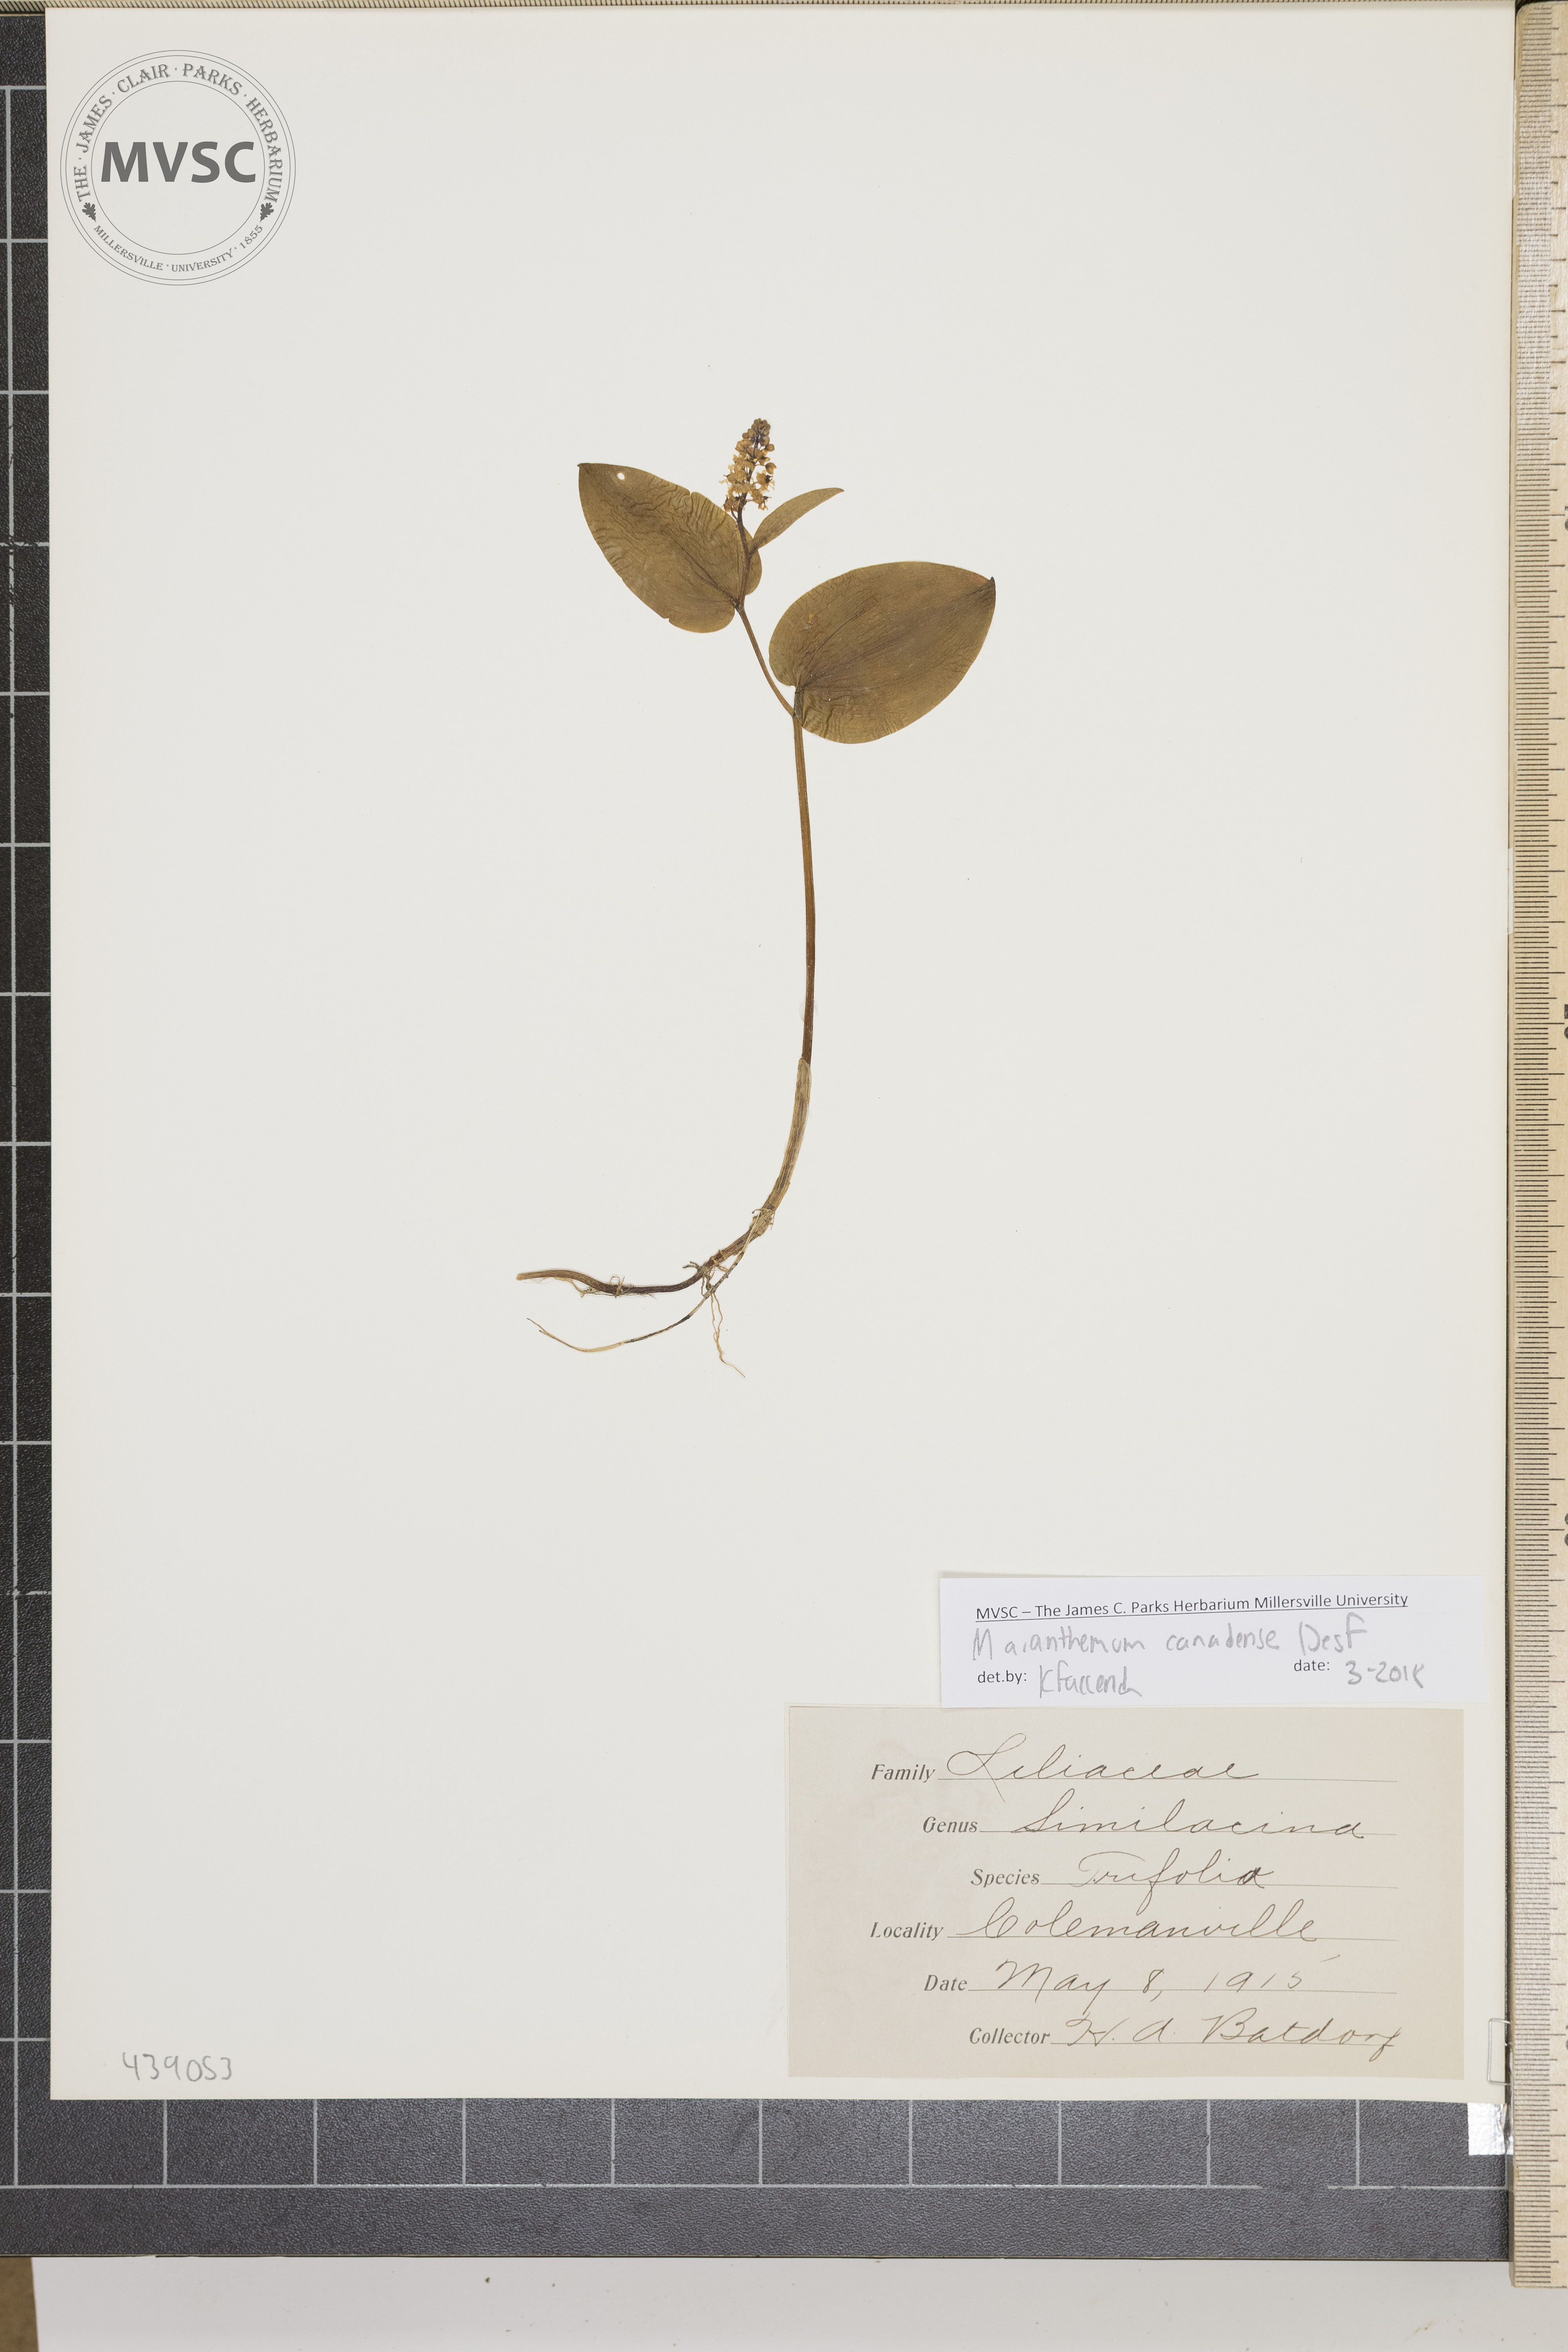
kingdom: Plantae
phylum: Tracheophyta
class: Liliopsida
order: Asparagales
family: Asparagaceae
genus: Maianthemum
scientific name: Maianthemum canadense
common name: False lily-of-the-valley
